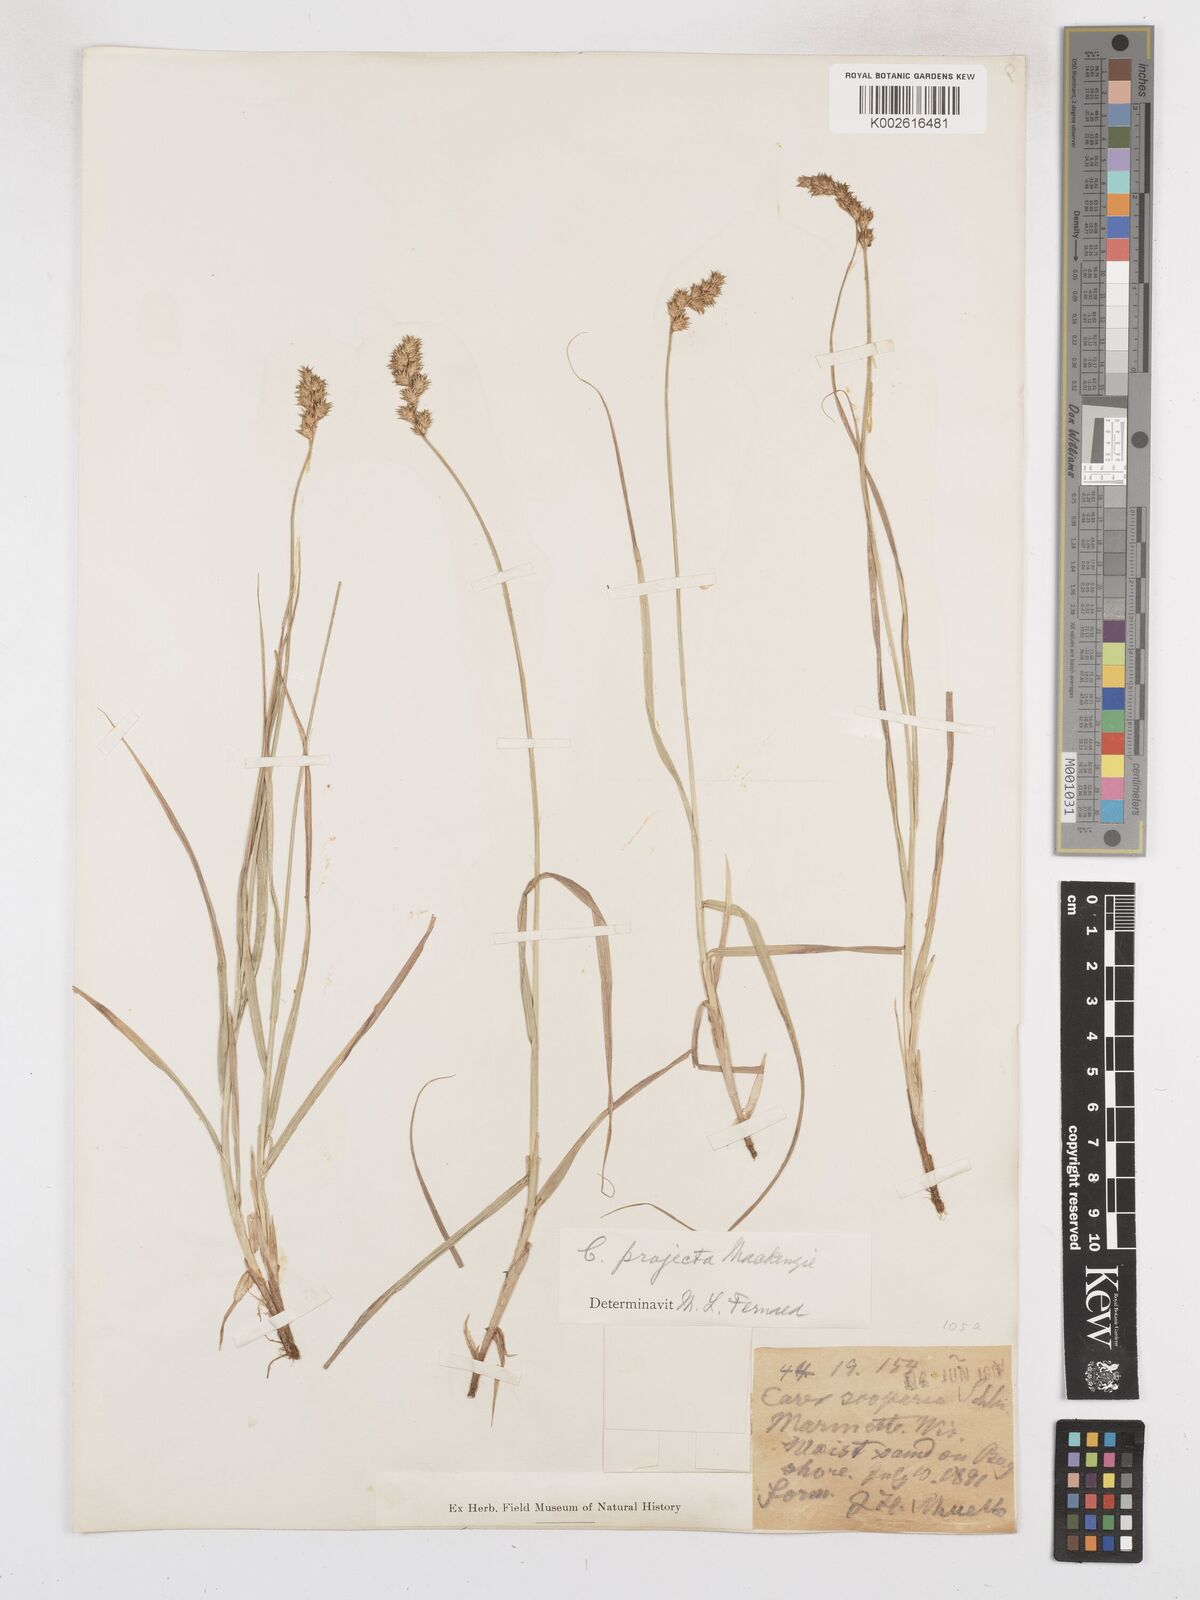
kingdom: Plantae
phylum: Tracheophyta
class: Liliopsida
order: Poales
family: Cyperaceae
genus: Carex
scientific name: Carex projecta
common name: Loose-headed oval sedge
